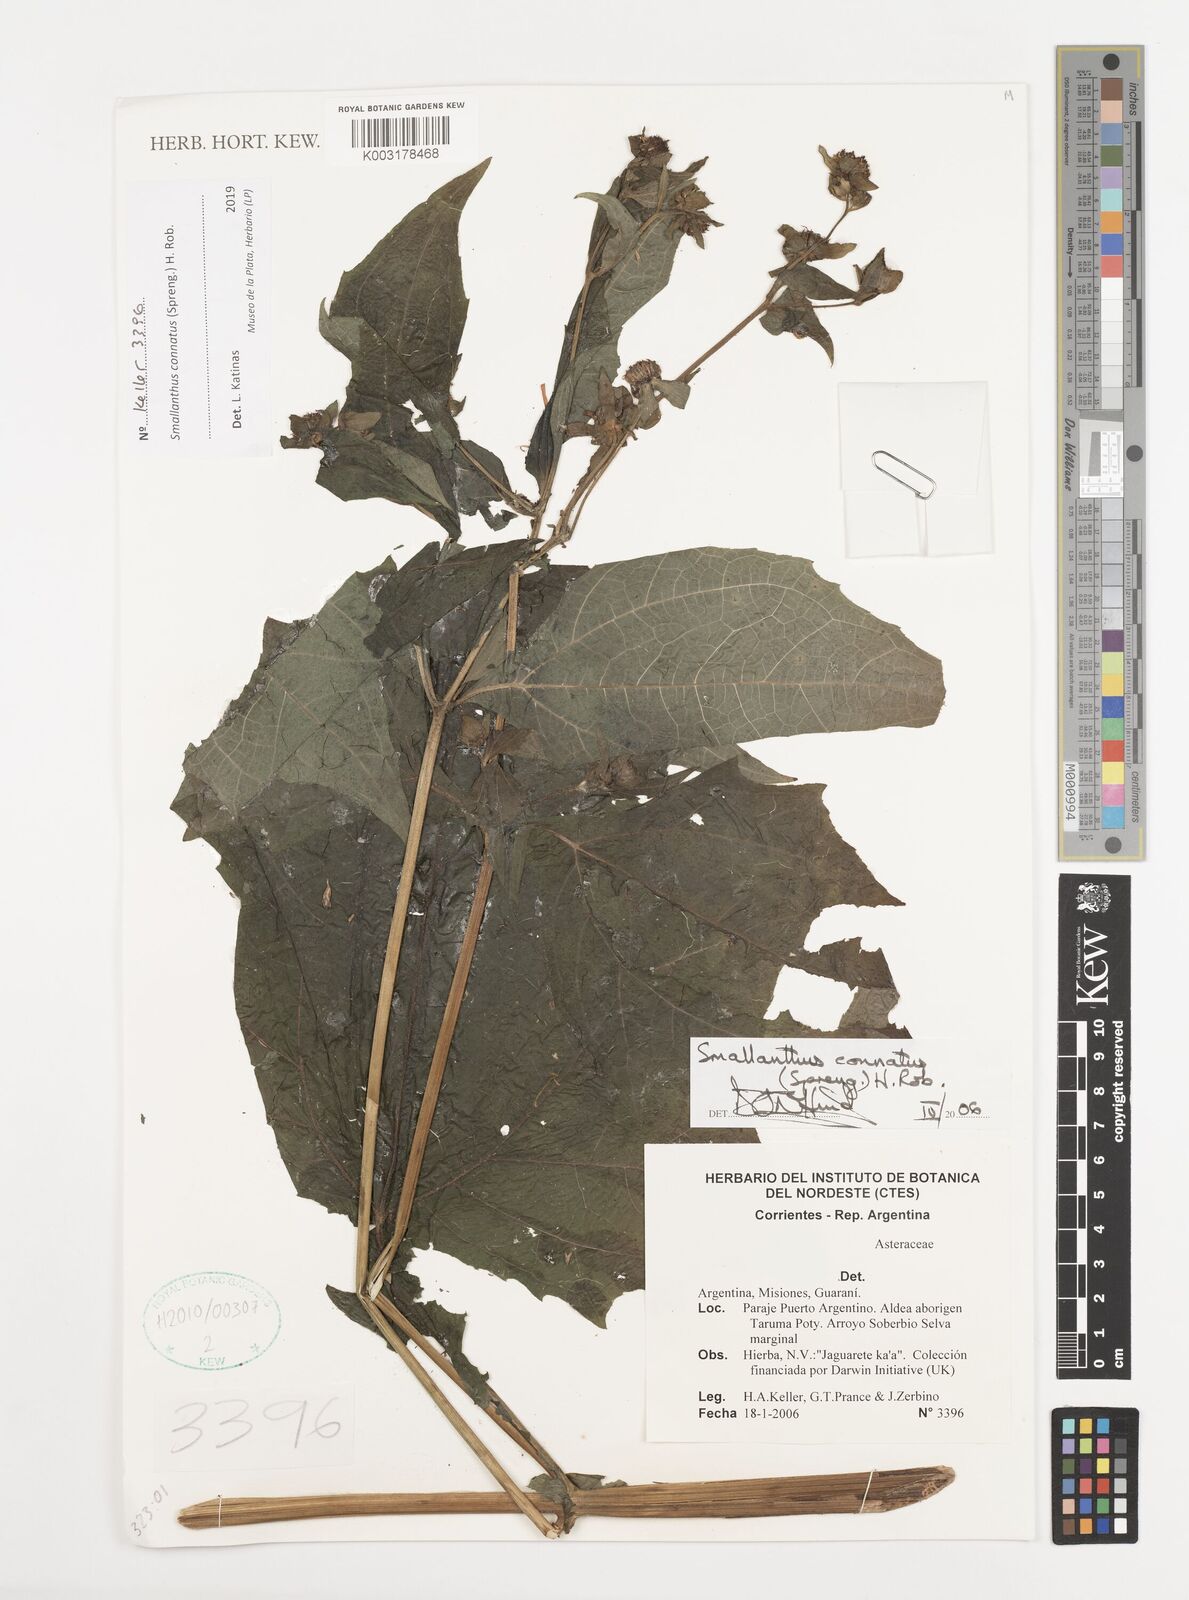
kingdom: Plantae
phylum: Tracheophyta
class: Magnoliopsida
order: Asterales
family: Asteraceae
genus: Smallanthus
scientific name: Smallanthus connatus
